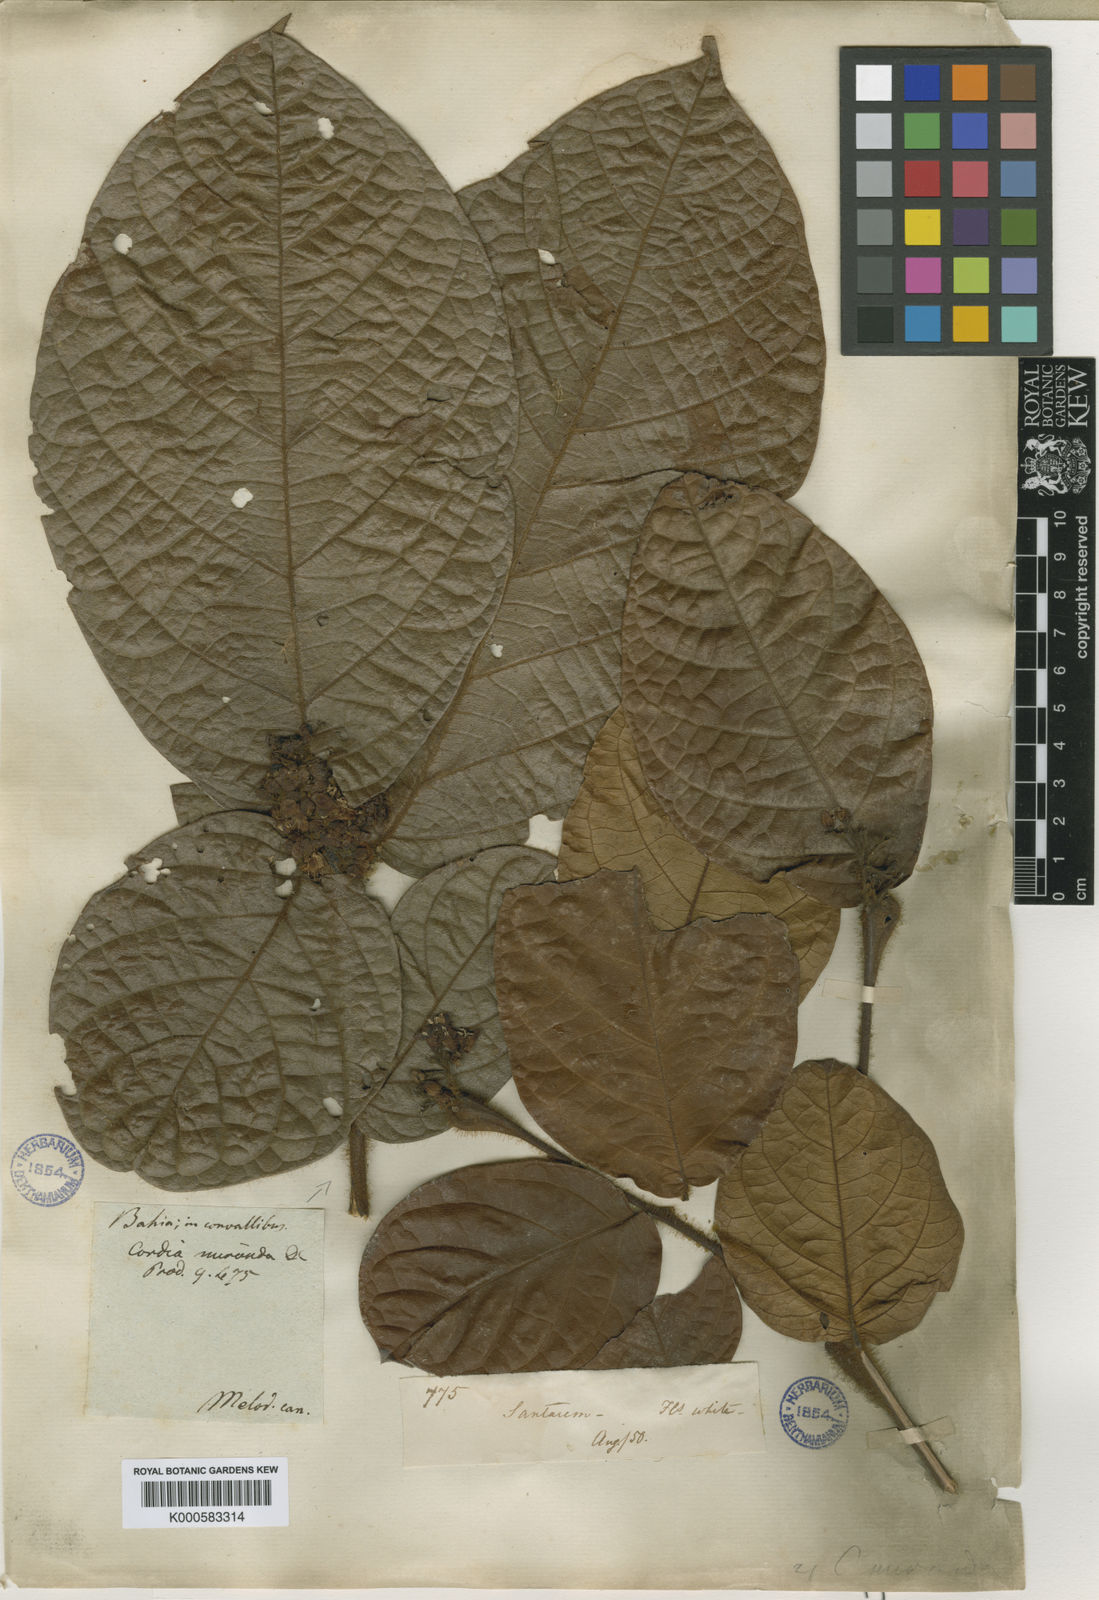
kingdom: Plantae
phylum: Tracheophyta
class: Magnoliopsida
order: Boraginales
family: Cordiaceae
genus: Cordia
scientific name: Cordia nodosa
